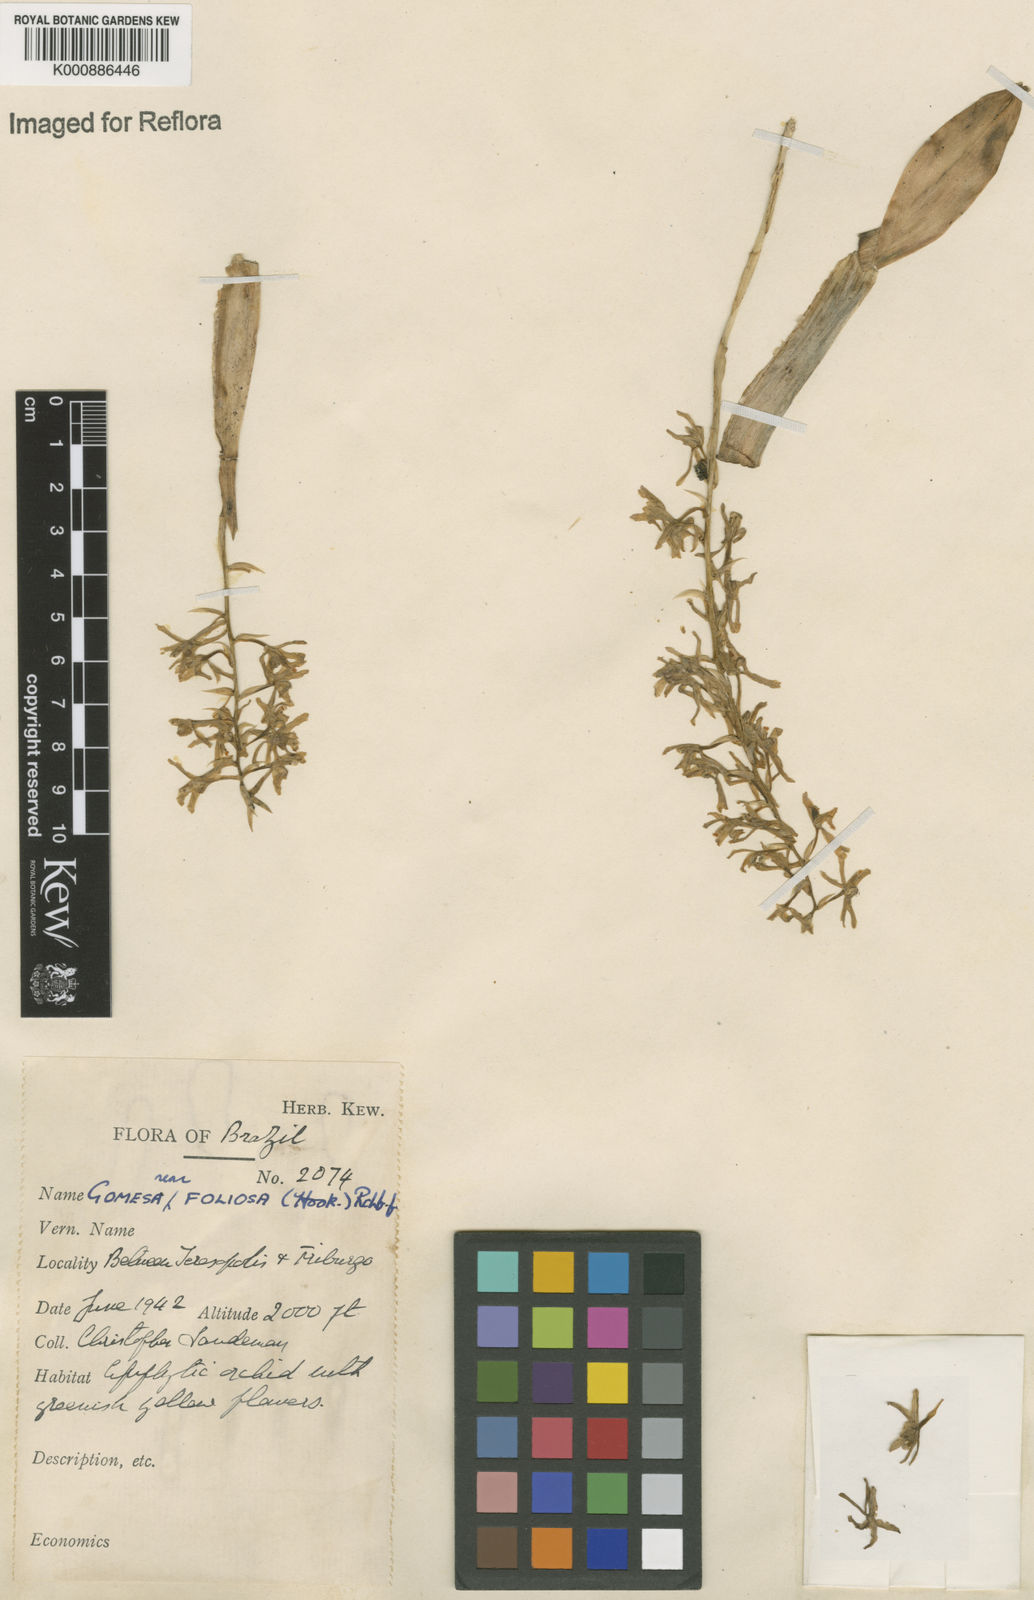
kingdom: Plantae
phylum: Tracheophyta
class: Liliopsida
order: Asparagales
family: Orchidaceae
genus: Gomesa
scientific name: Gomesa recurva
